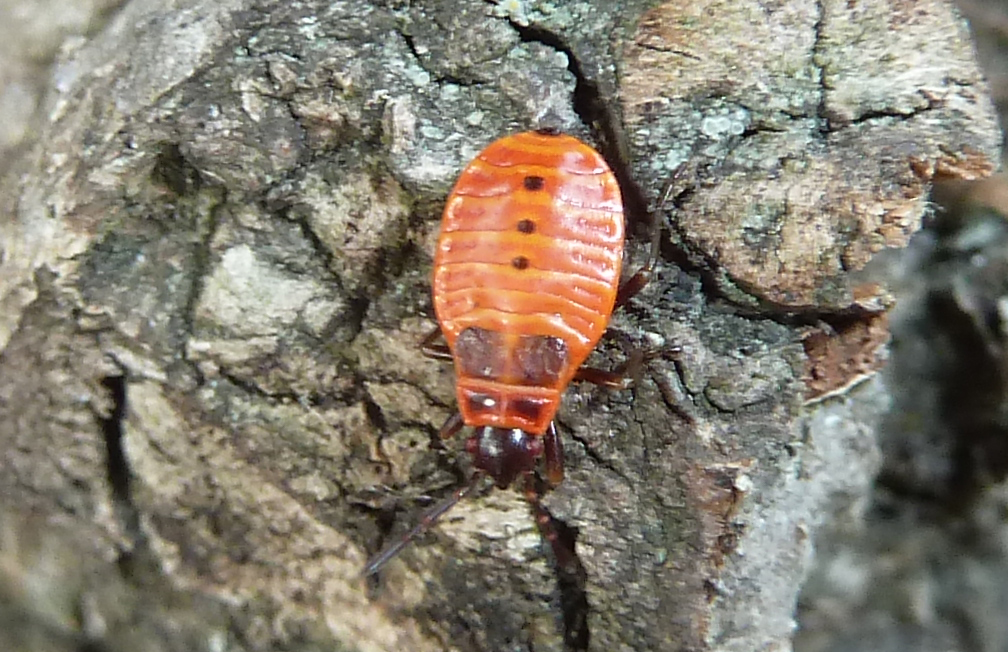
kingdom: Animalia
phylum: Arthropoda
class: Insecta
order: Hemiptera
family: Pyrrhocoridae
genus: Pyrrhocoris
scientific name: Pyrrhocoris apterus
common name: Firebug
